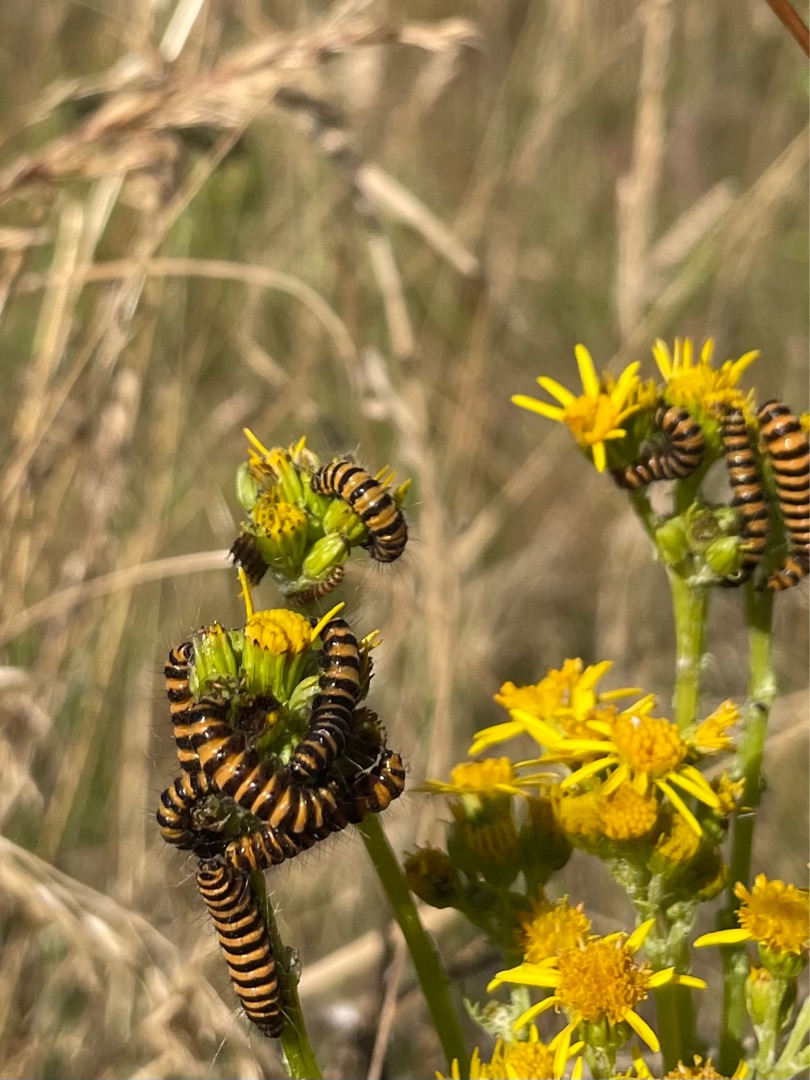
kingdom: Animalia
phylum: Arthropoda
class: Insecta
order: Lepidoptera
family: Erebidae
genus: Tyria
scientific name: Tyria jacobaeae
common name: Blodplet
